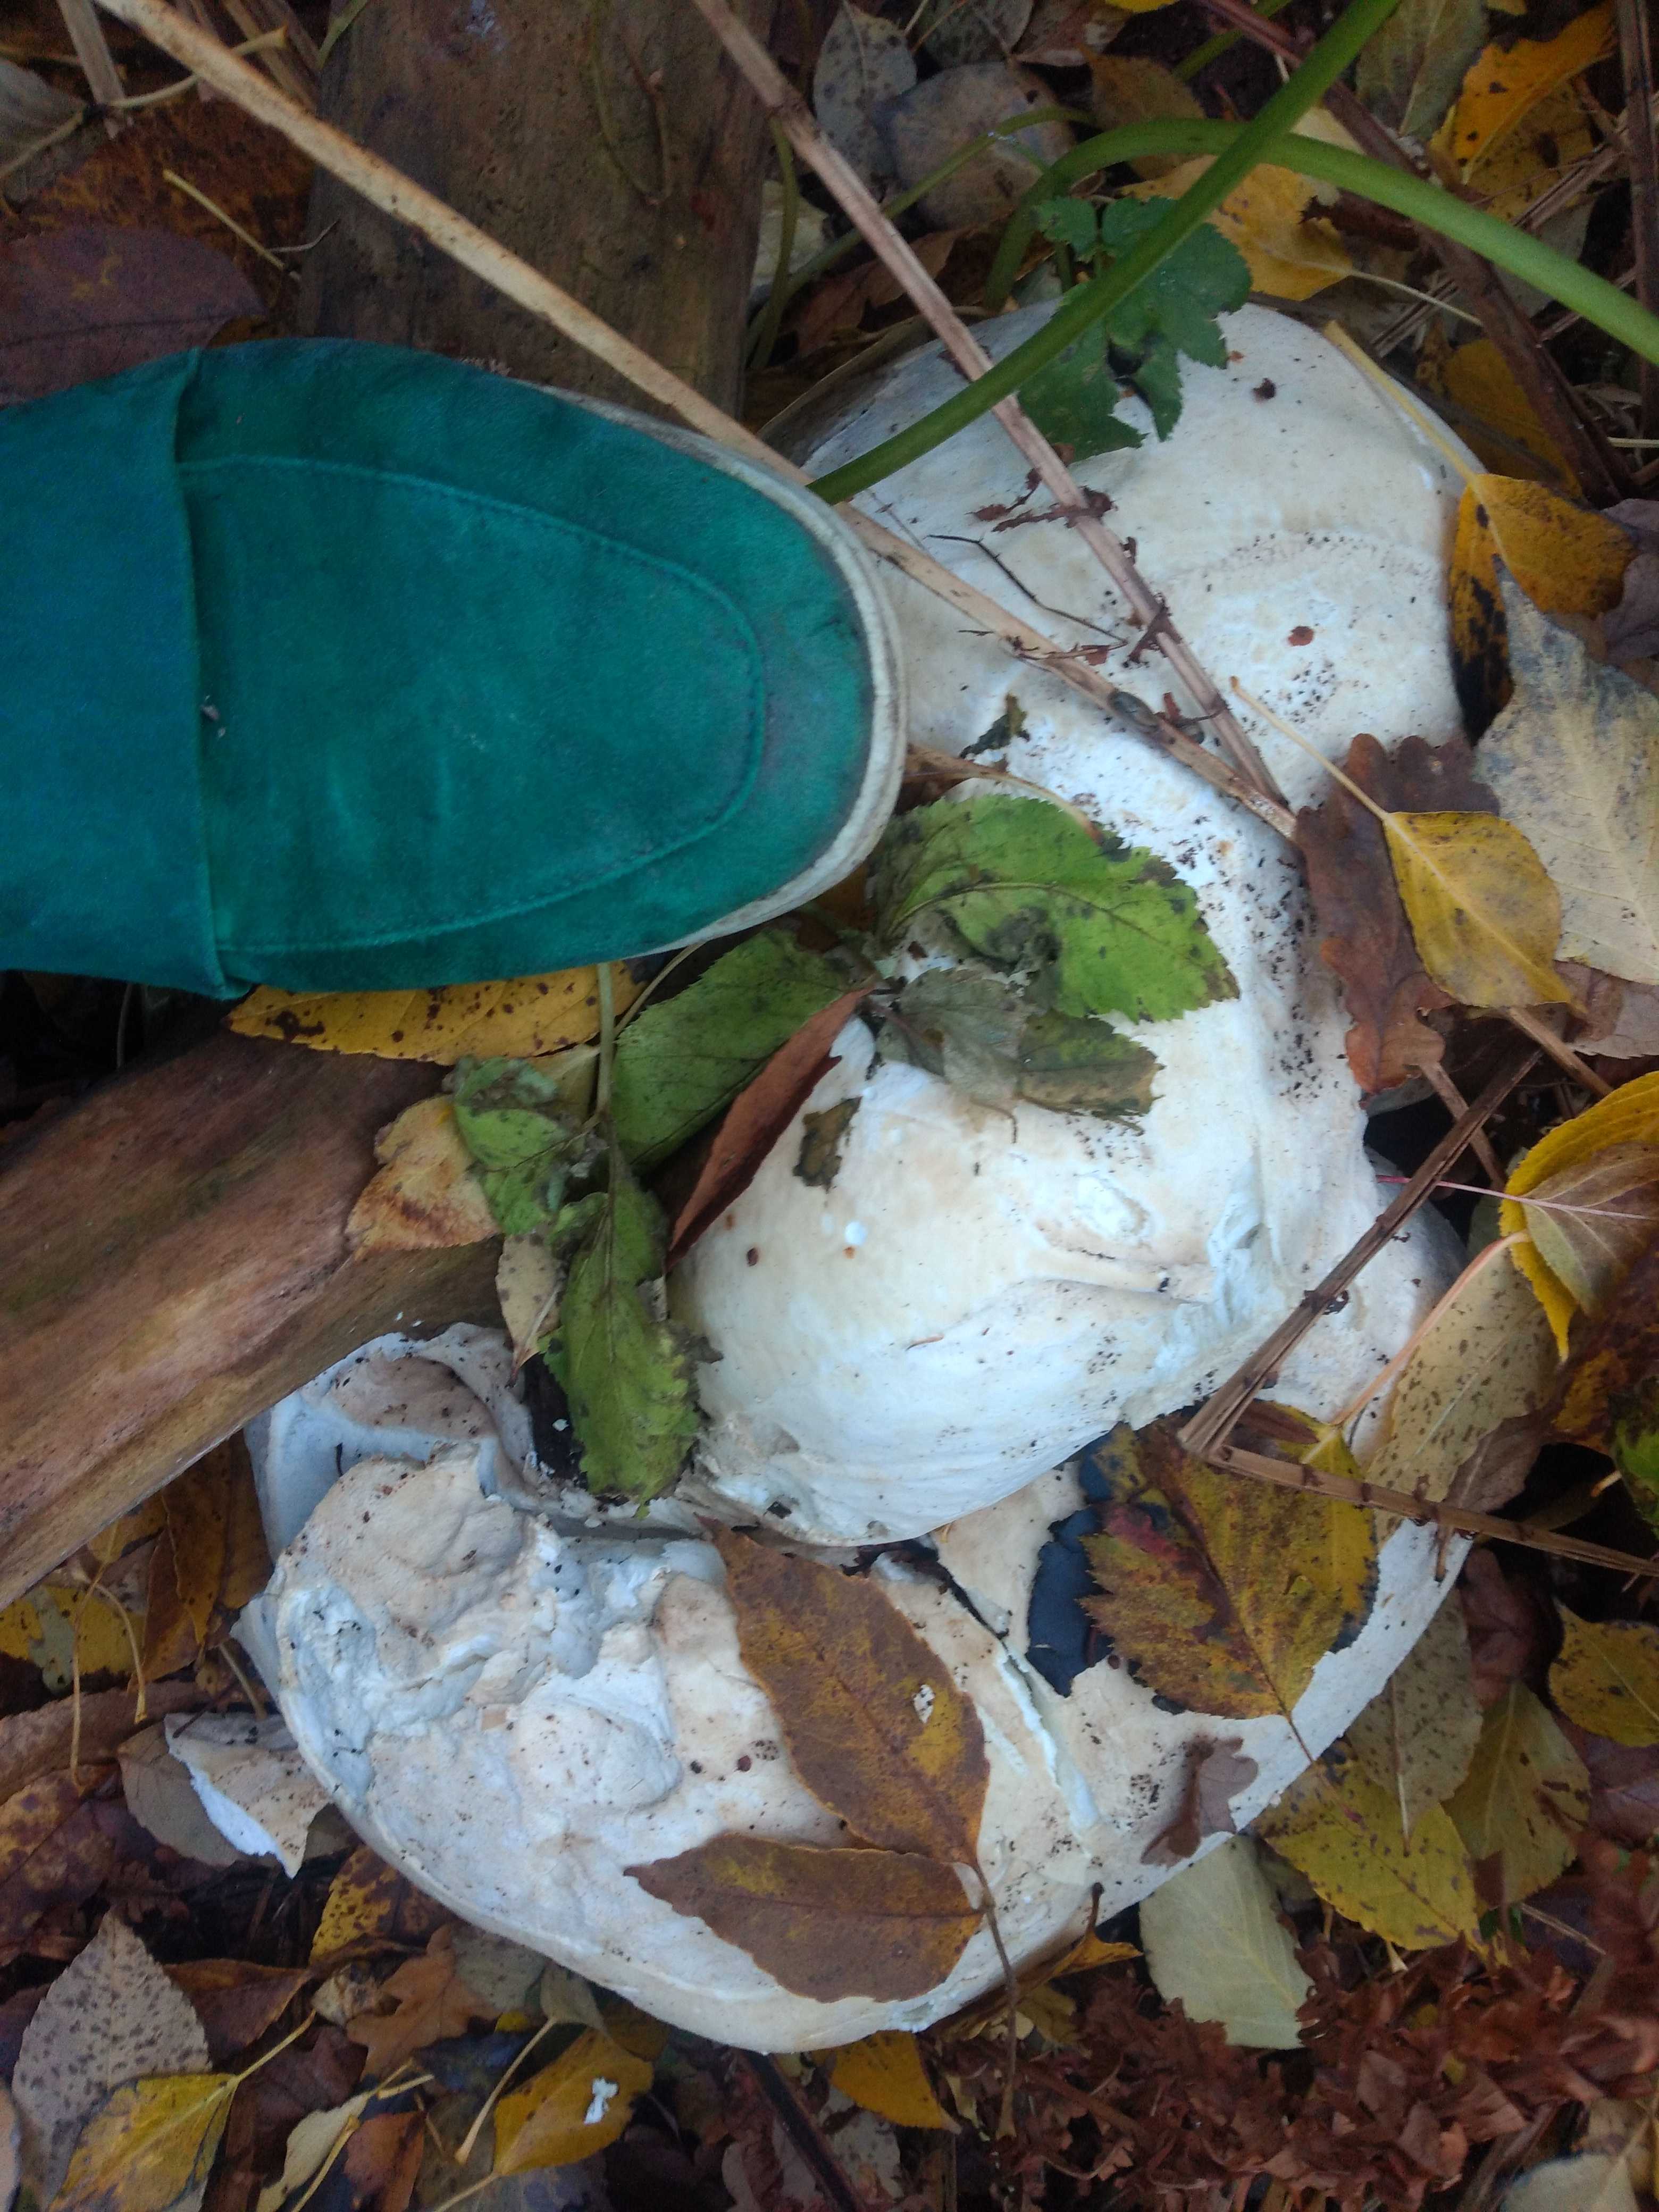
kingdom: Fungi
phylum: Basidiomycota
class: Agaricomycetes
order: Agaricales
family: Lycoperdaceae
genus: Calvatia
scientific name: Calvatia gigantea
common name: kæmpestøvbold
